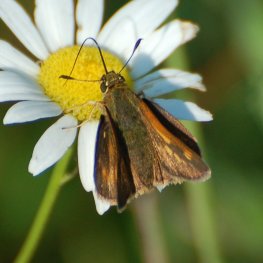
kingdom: Animalia
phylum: Arthropoda
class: Insecta
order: Lepidoptera
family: Hesperiidae
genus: Polites
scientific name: Polites themistocles
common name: Tawny-edged Skipper
